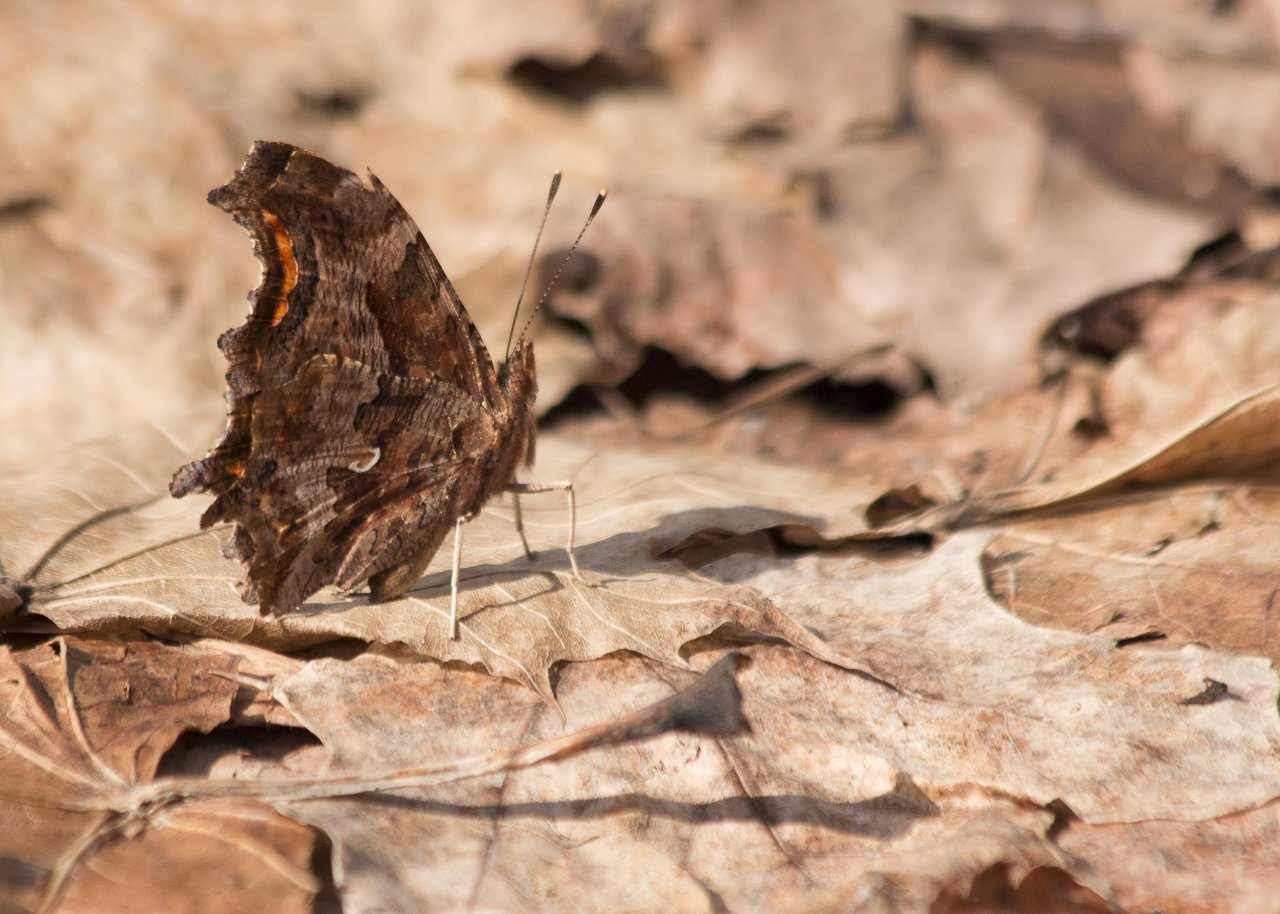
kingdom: Animalia
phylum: Arthropoda
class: Insecta
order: Lepidoptera
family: Nymphalidae
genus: Polygonia
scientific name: Polygonia comma
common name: Eastern Comma
